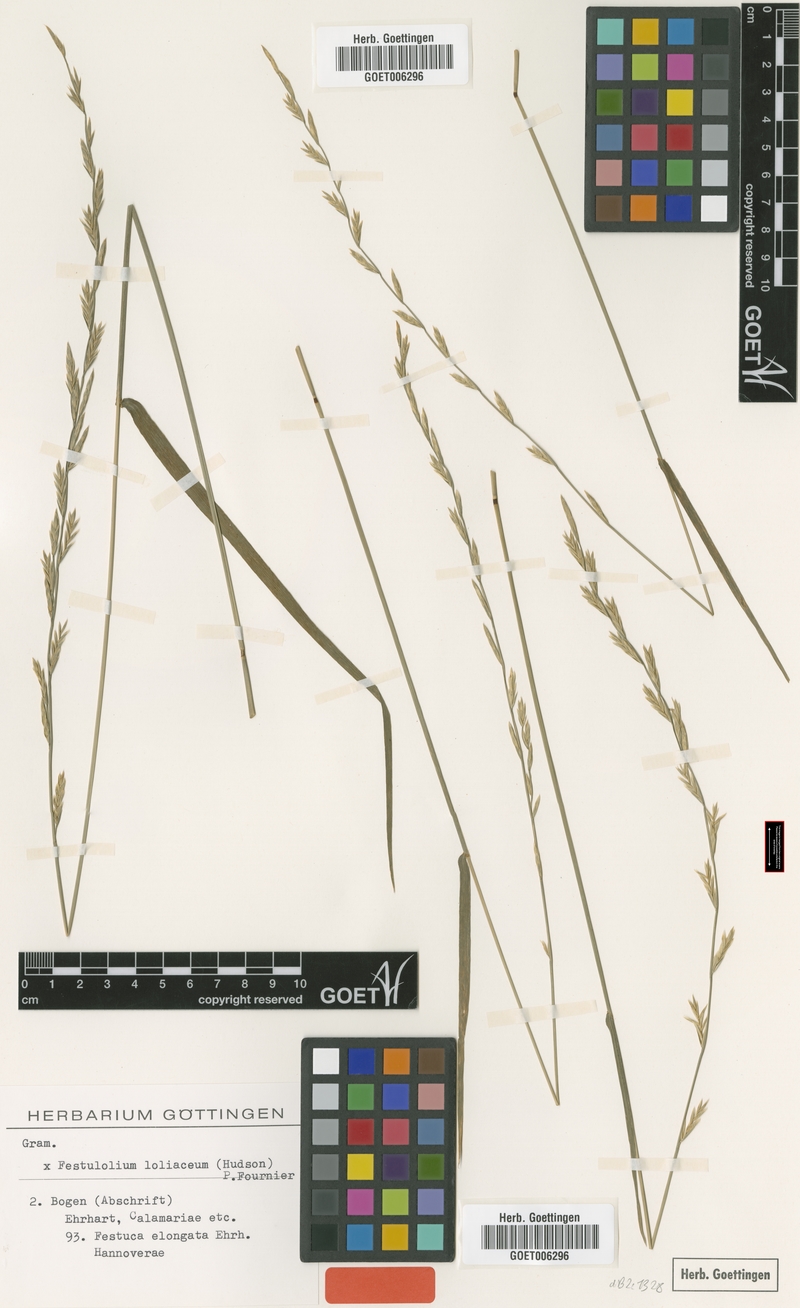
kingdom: Plantae
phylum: Tracheophyta
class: Liliopsida
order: Poales
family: Poaceae
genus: Lolium
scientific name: Lolium elongatum
